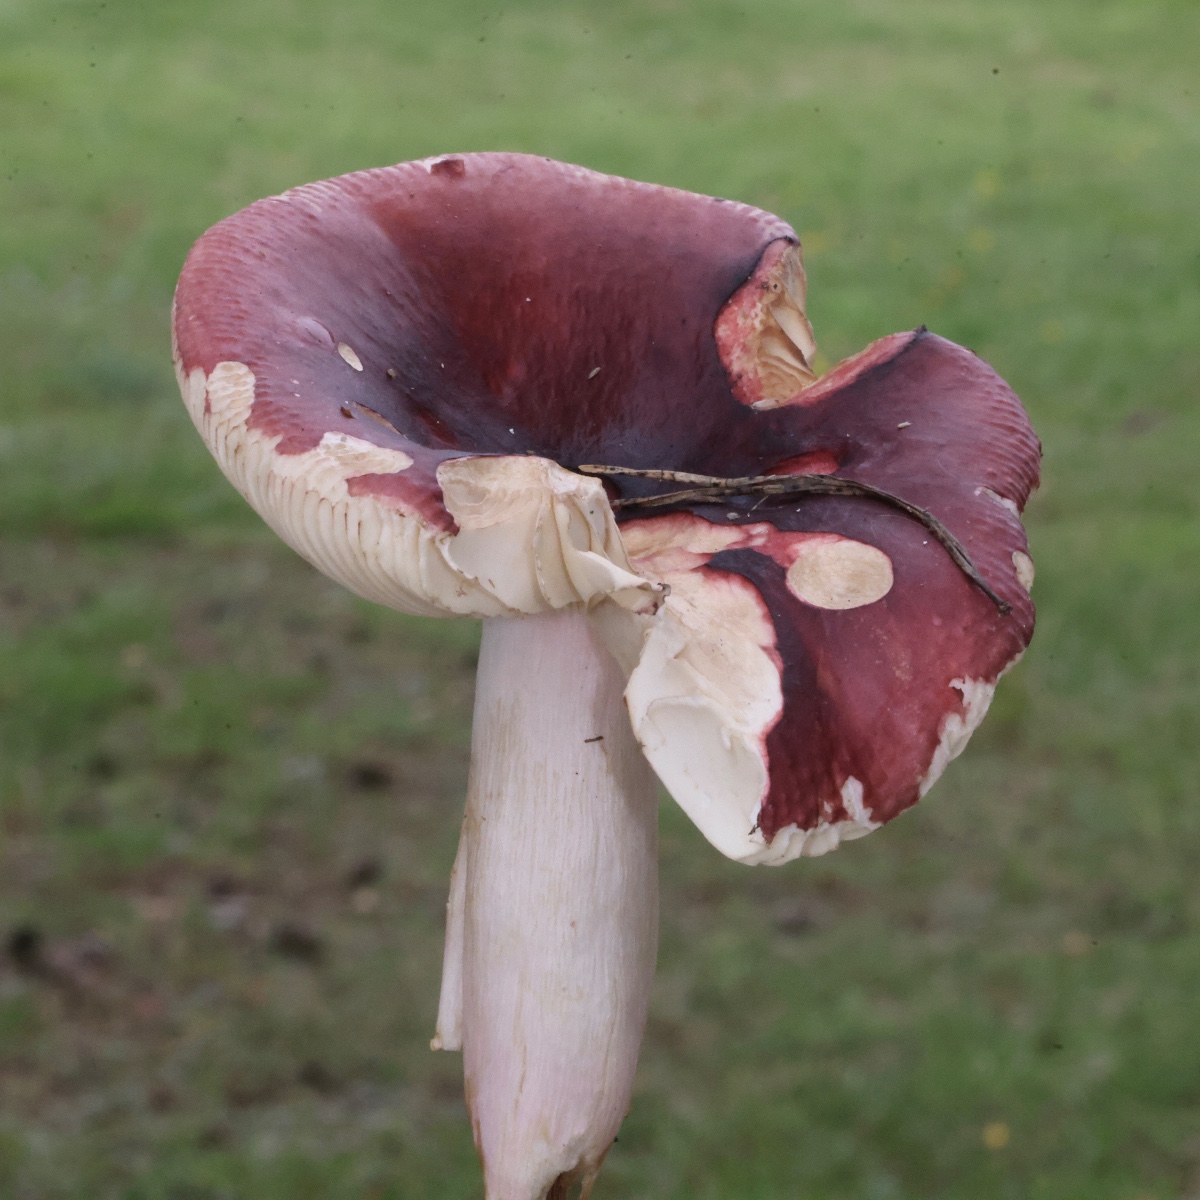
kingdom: Fungi
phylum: Basidiomycota
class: Agaricomycetes
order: Russulales
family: Russulaceae
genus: Russula
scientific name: Russula
